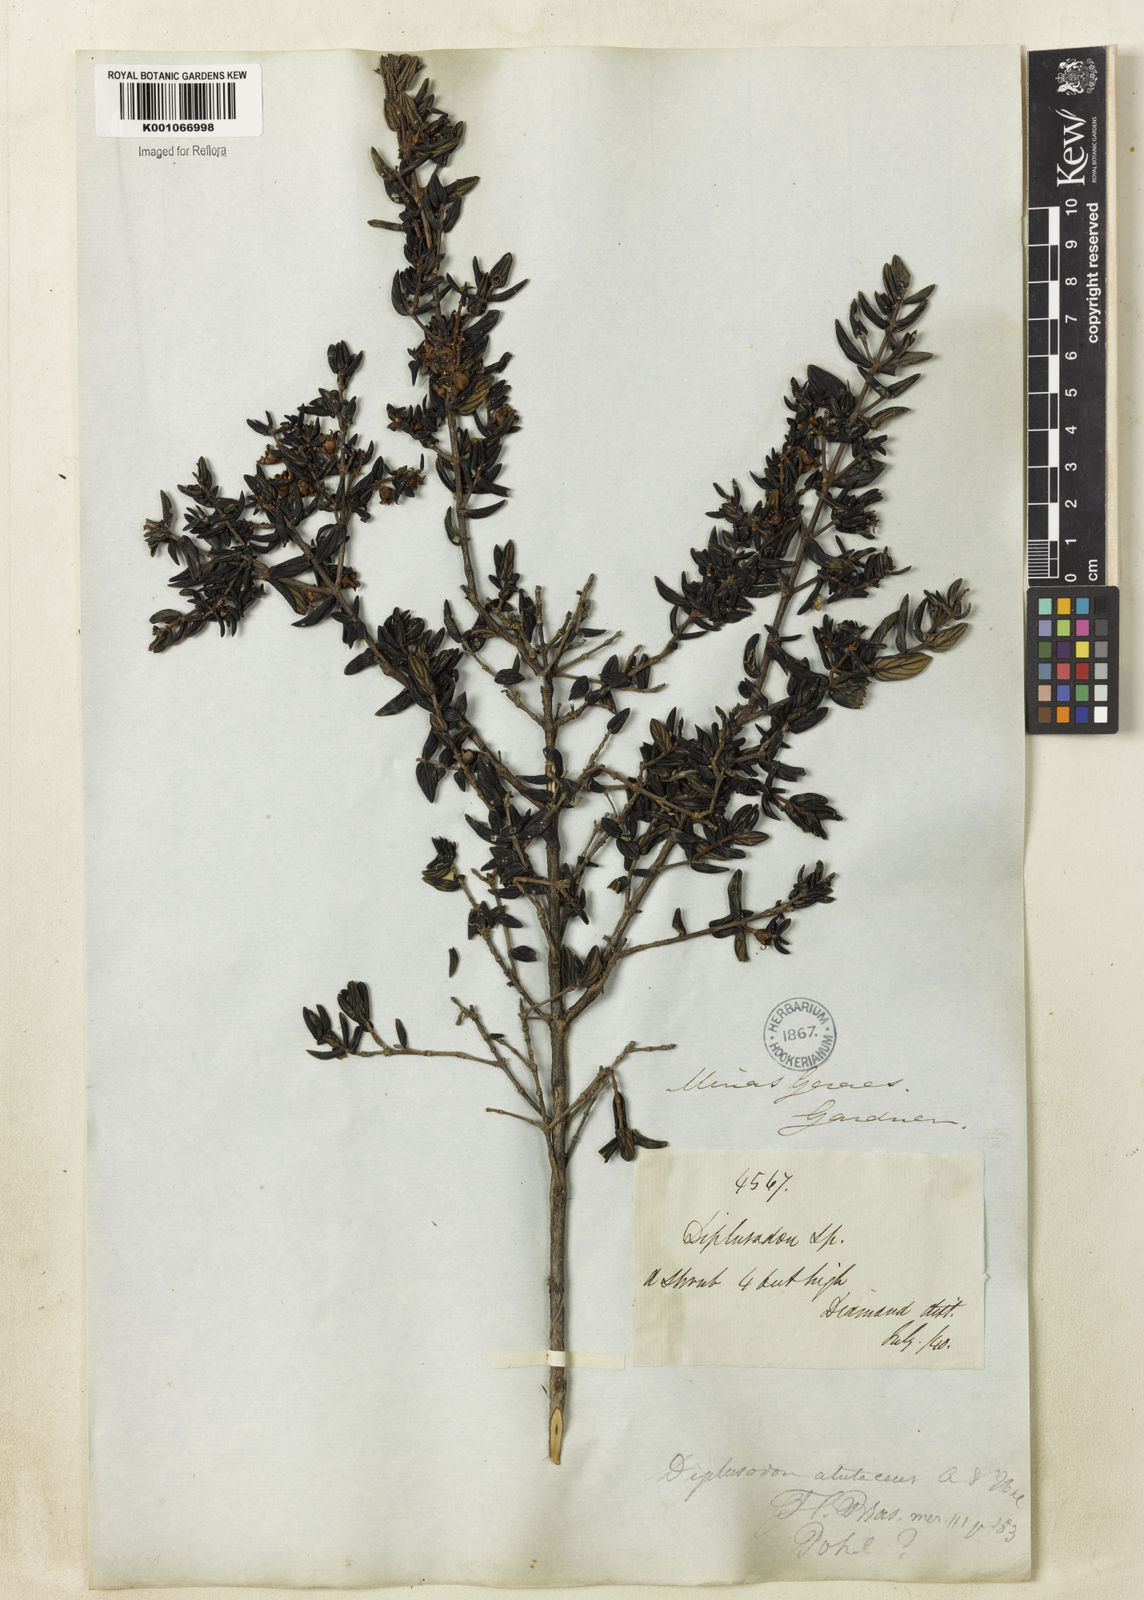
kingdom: Plantae
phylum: Tracheophyta
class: Magnoliopsida
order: Myrtales
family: Lythraceae
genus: Diplusodon
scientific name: Diplusodon helianthemifolius
